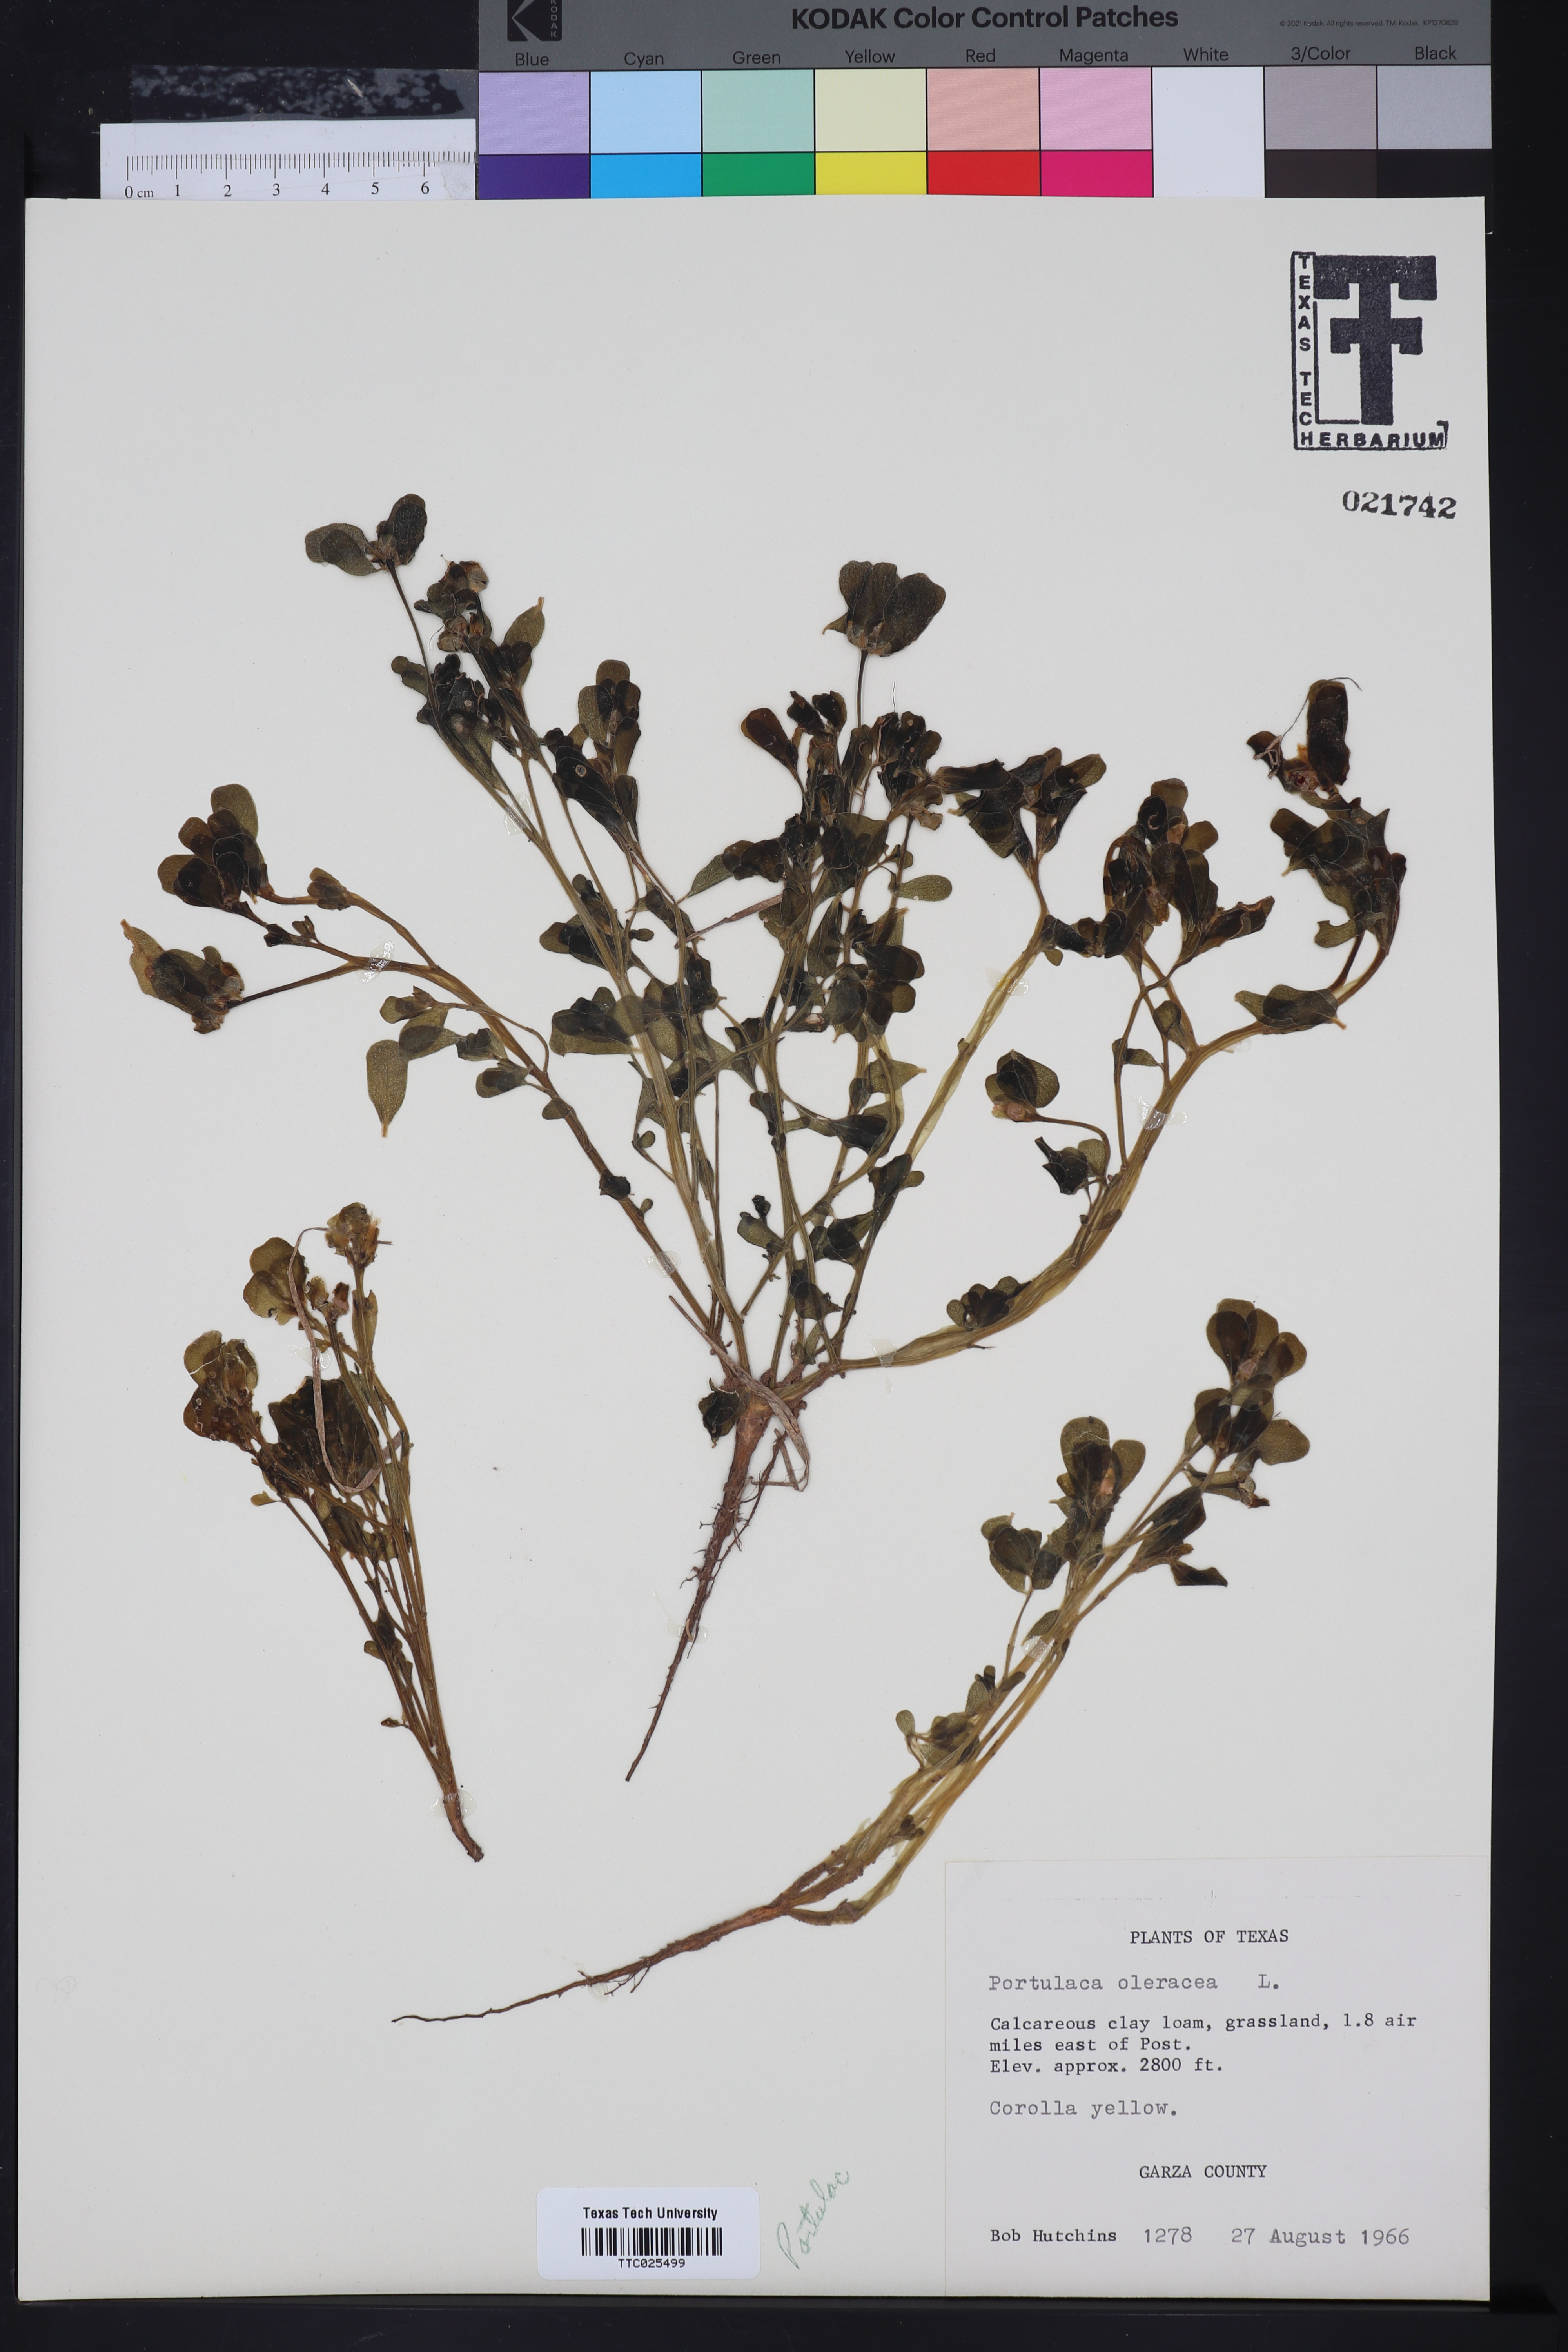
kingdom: Plantae
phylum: Tracheophyta
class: Magnoliopsida
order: Caryophyllales
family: Portulacaceae
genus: Portulaca
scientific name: Portulaca oleracea
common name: Common purslane
